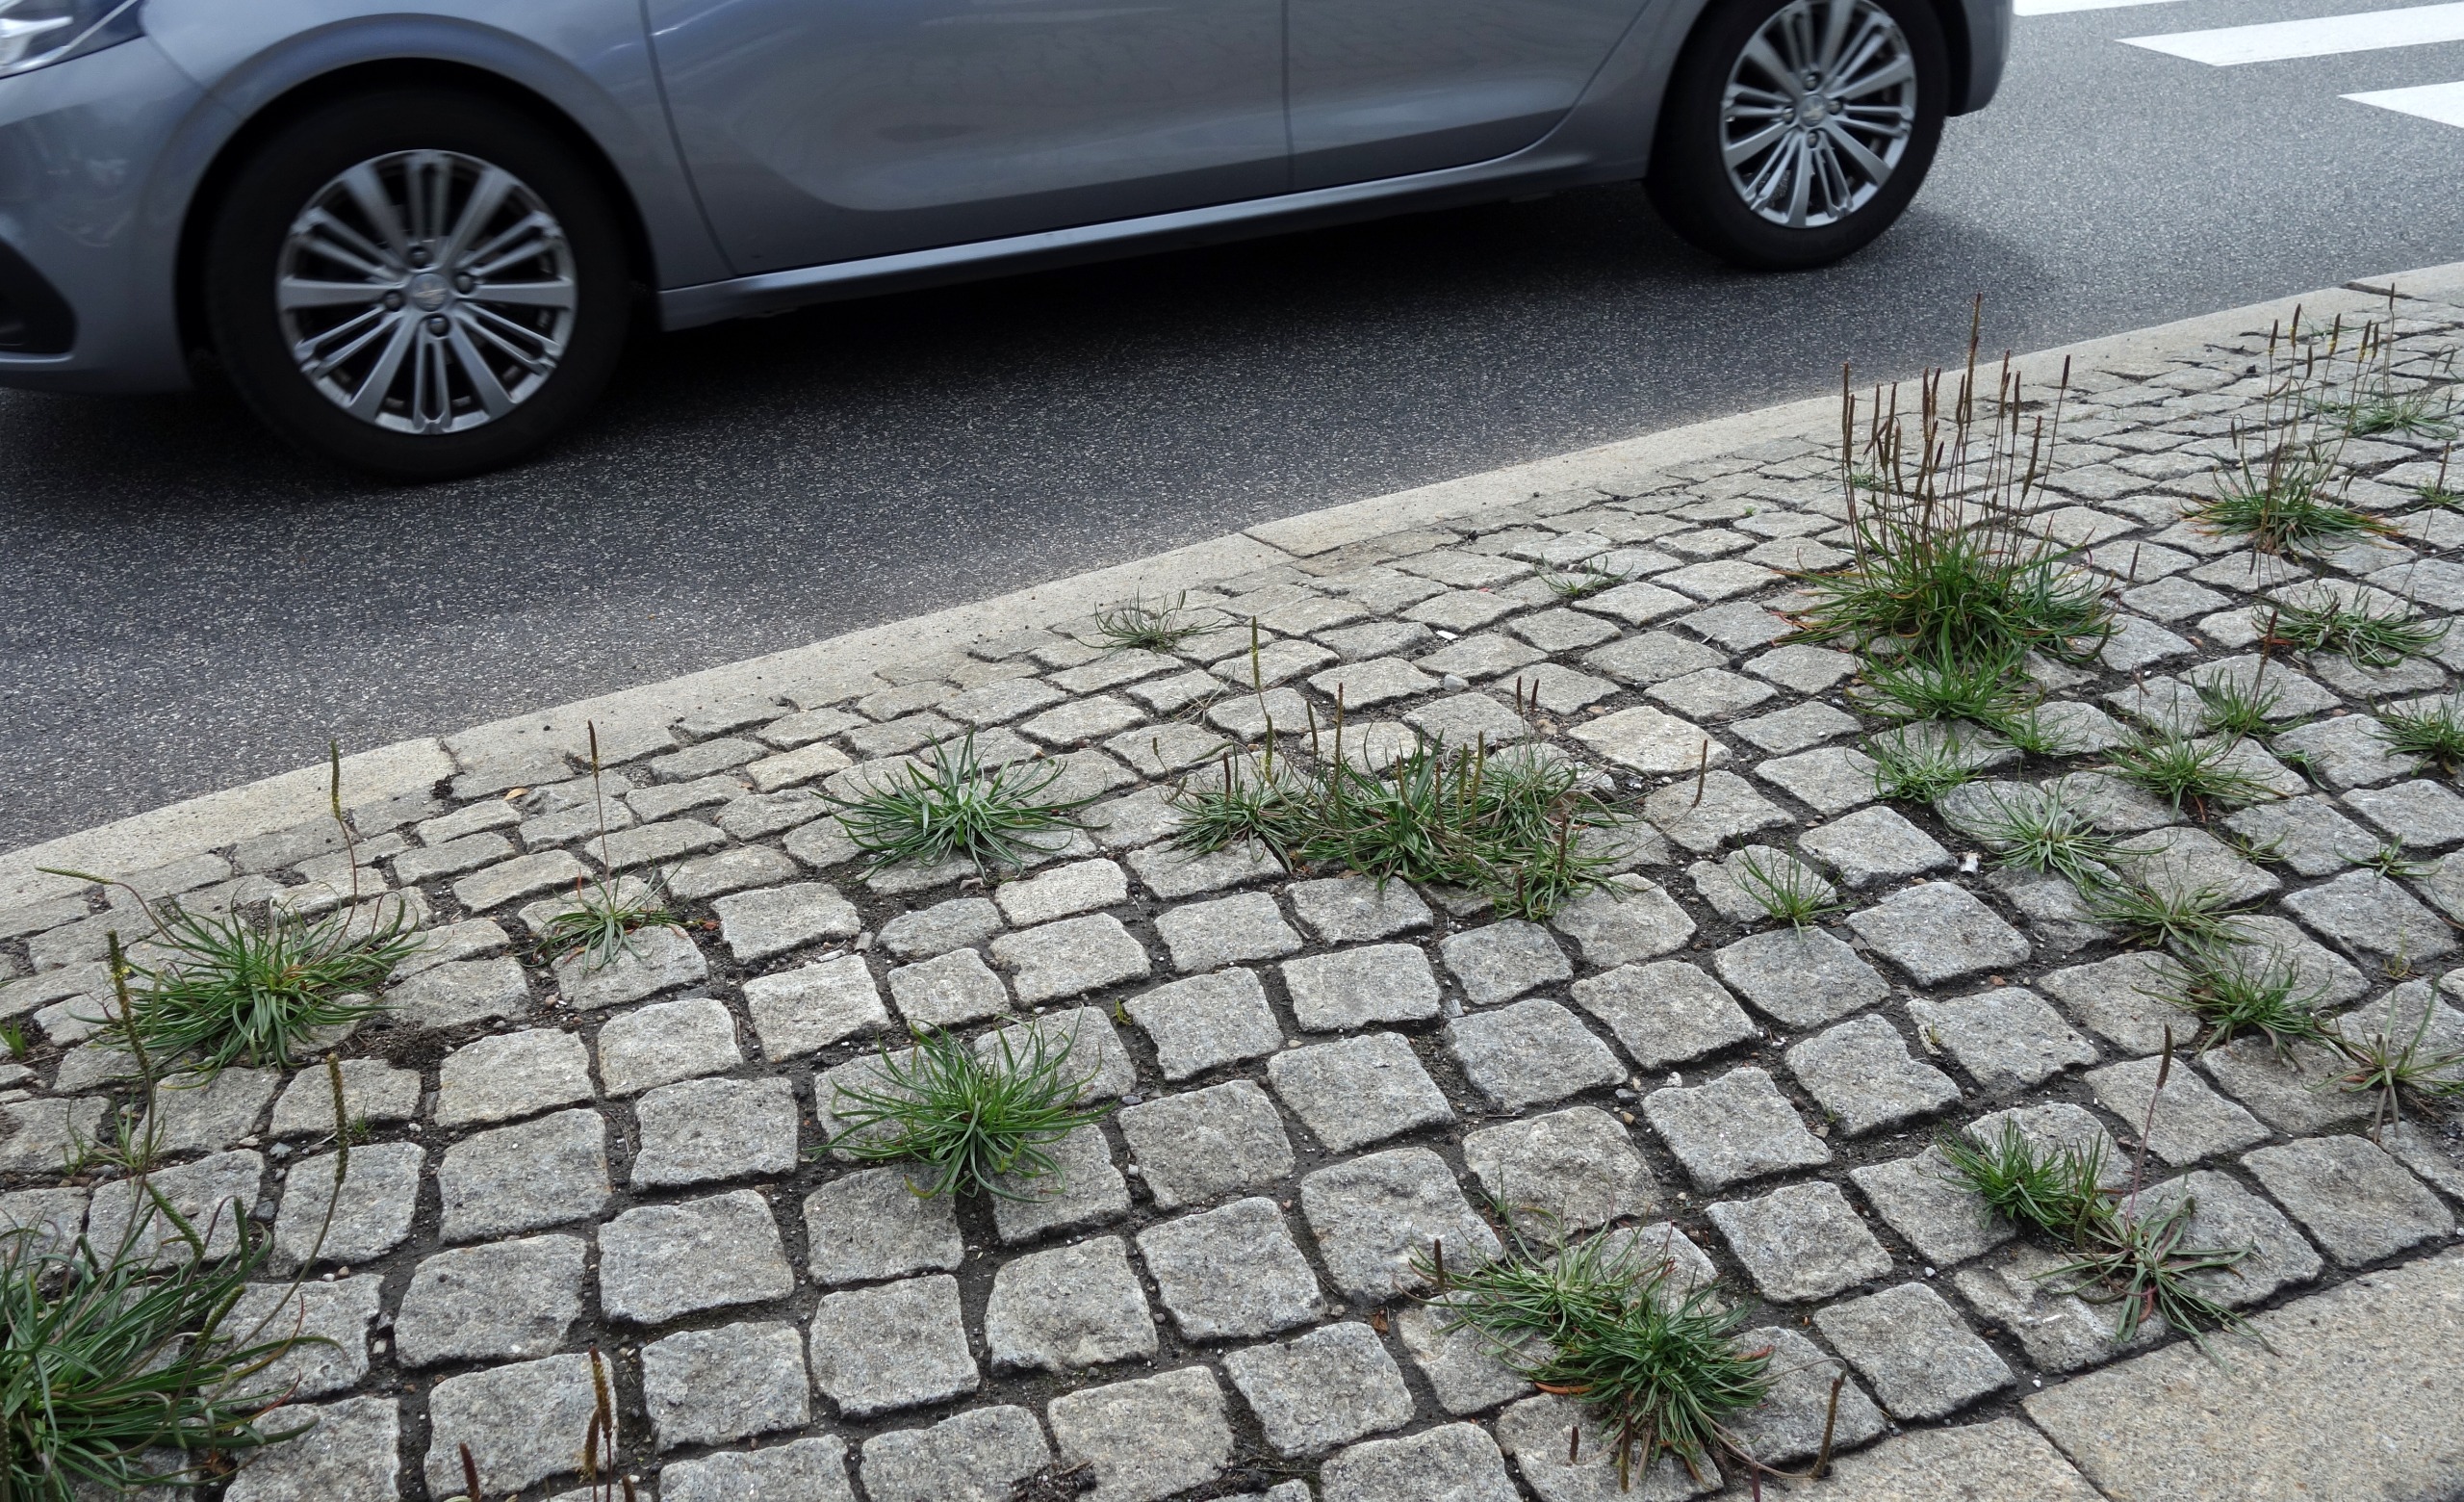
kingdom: Plantae
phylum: Tracheophyta
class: Magnoliopsida
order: Lamiales
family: Plantaginaceae
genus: Plantago
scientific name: Plantago maritima
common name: Strand-vejbred
